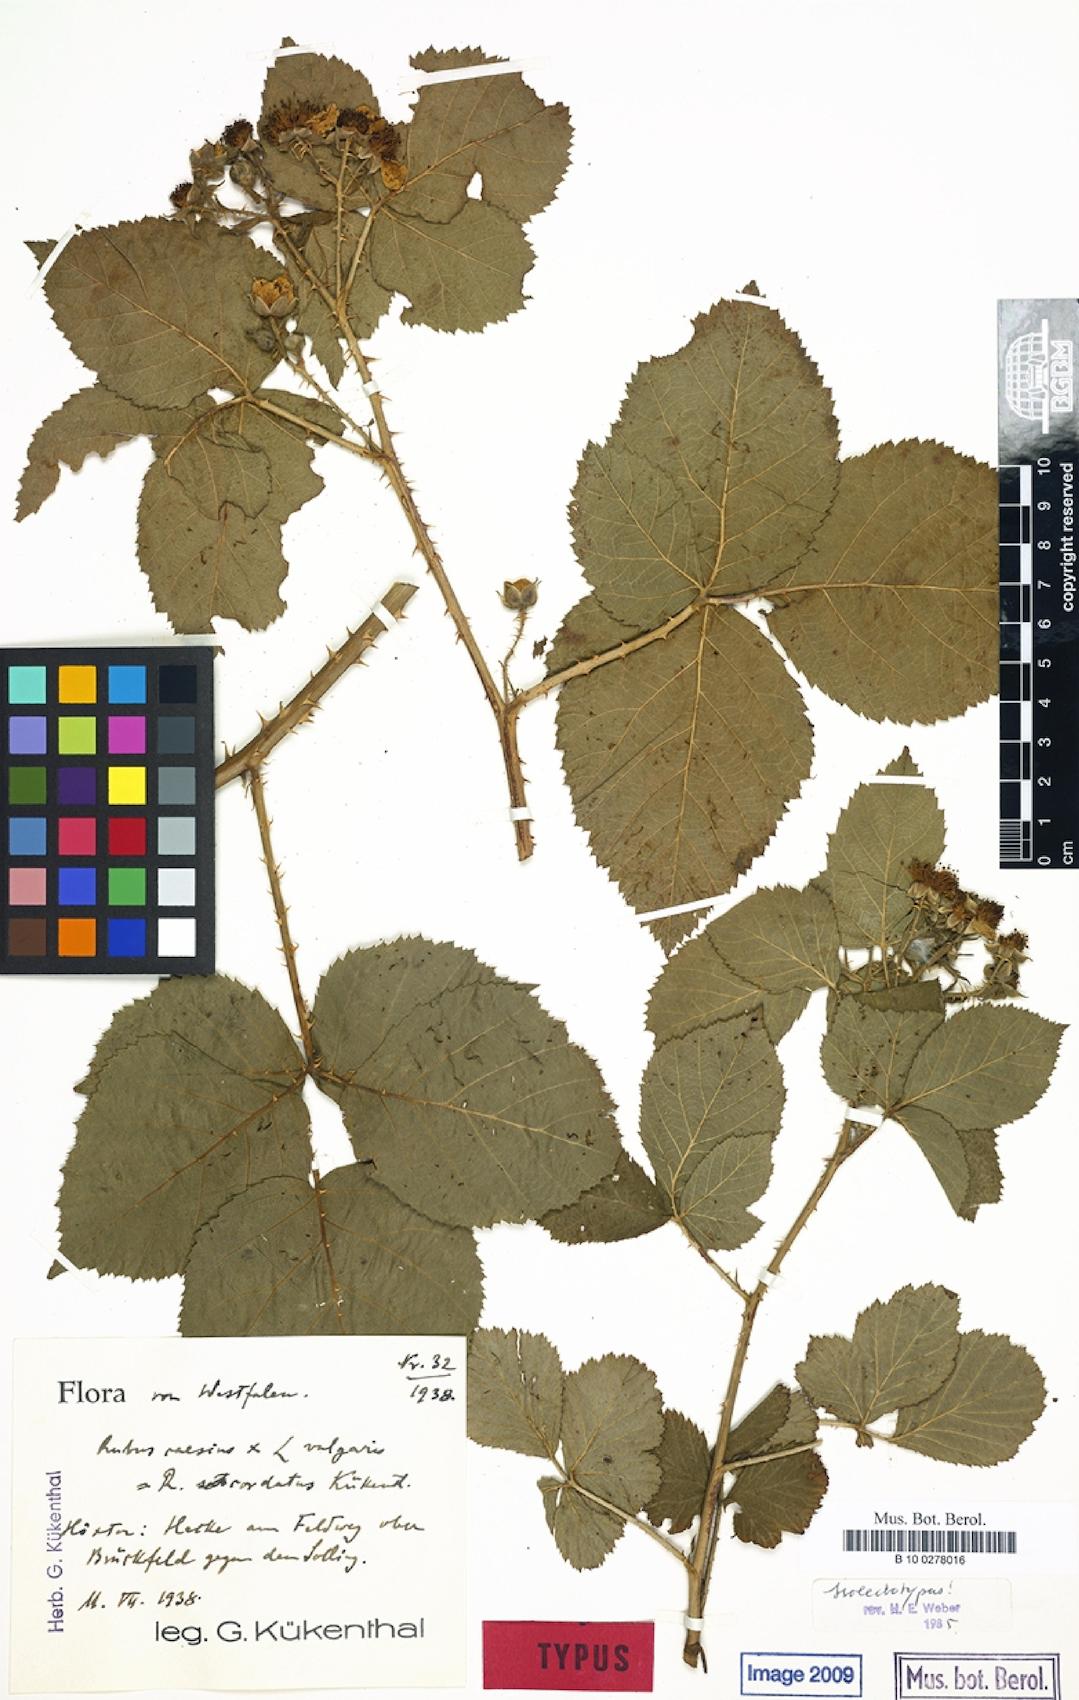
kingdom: Plantae
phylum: Tracheophyta
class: Magnoliopsida
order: Rosales
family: Rosaceae
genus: Rubus
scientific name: Rubus cordatus
